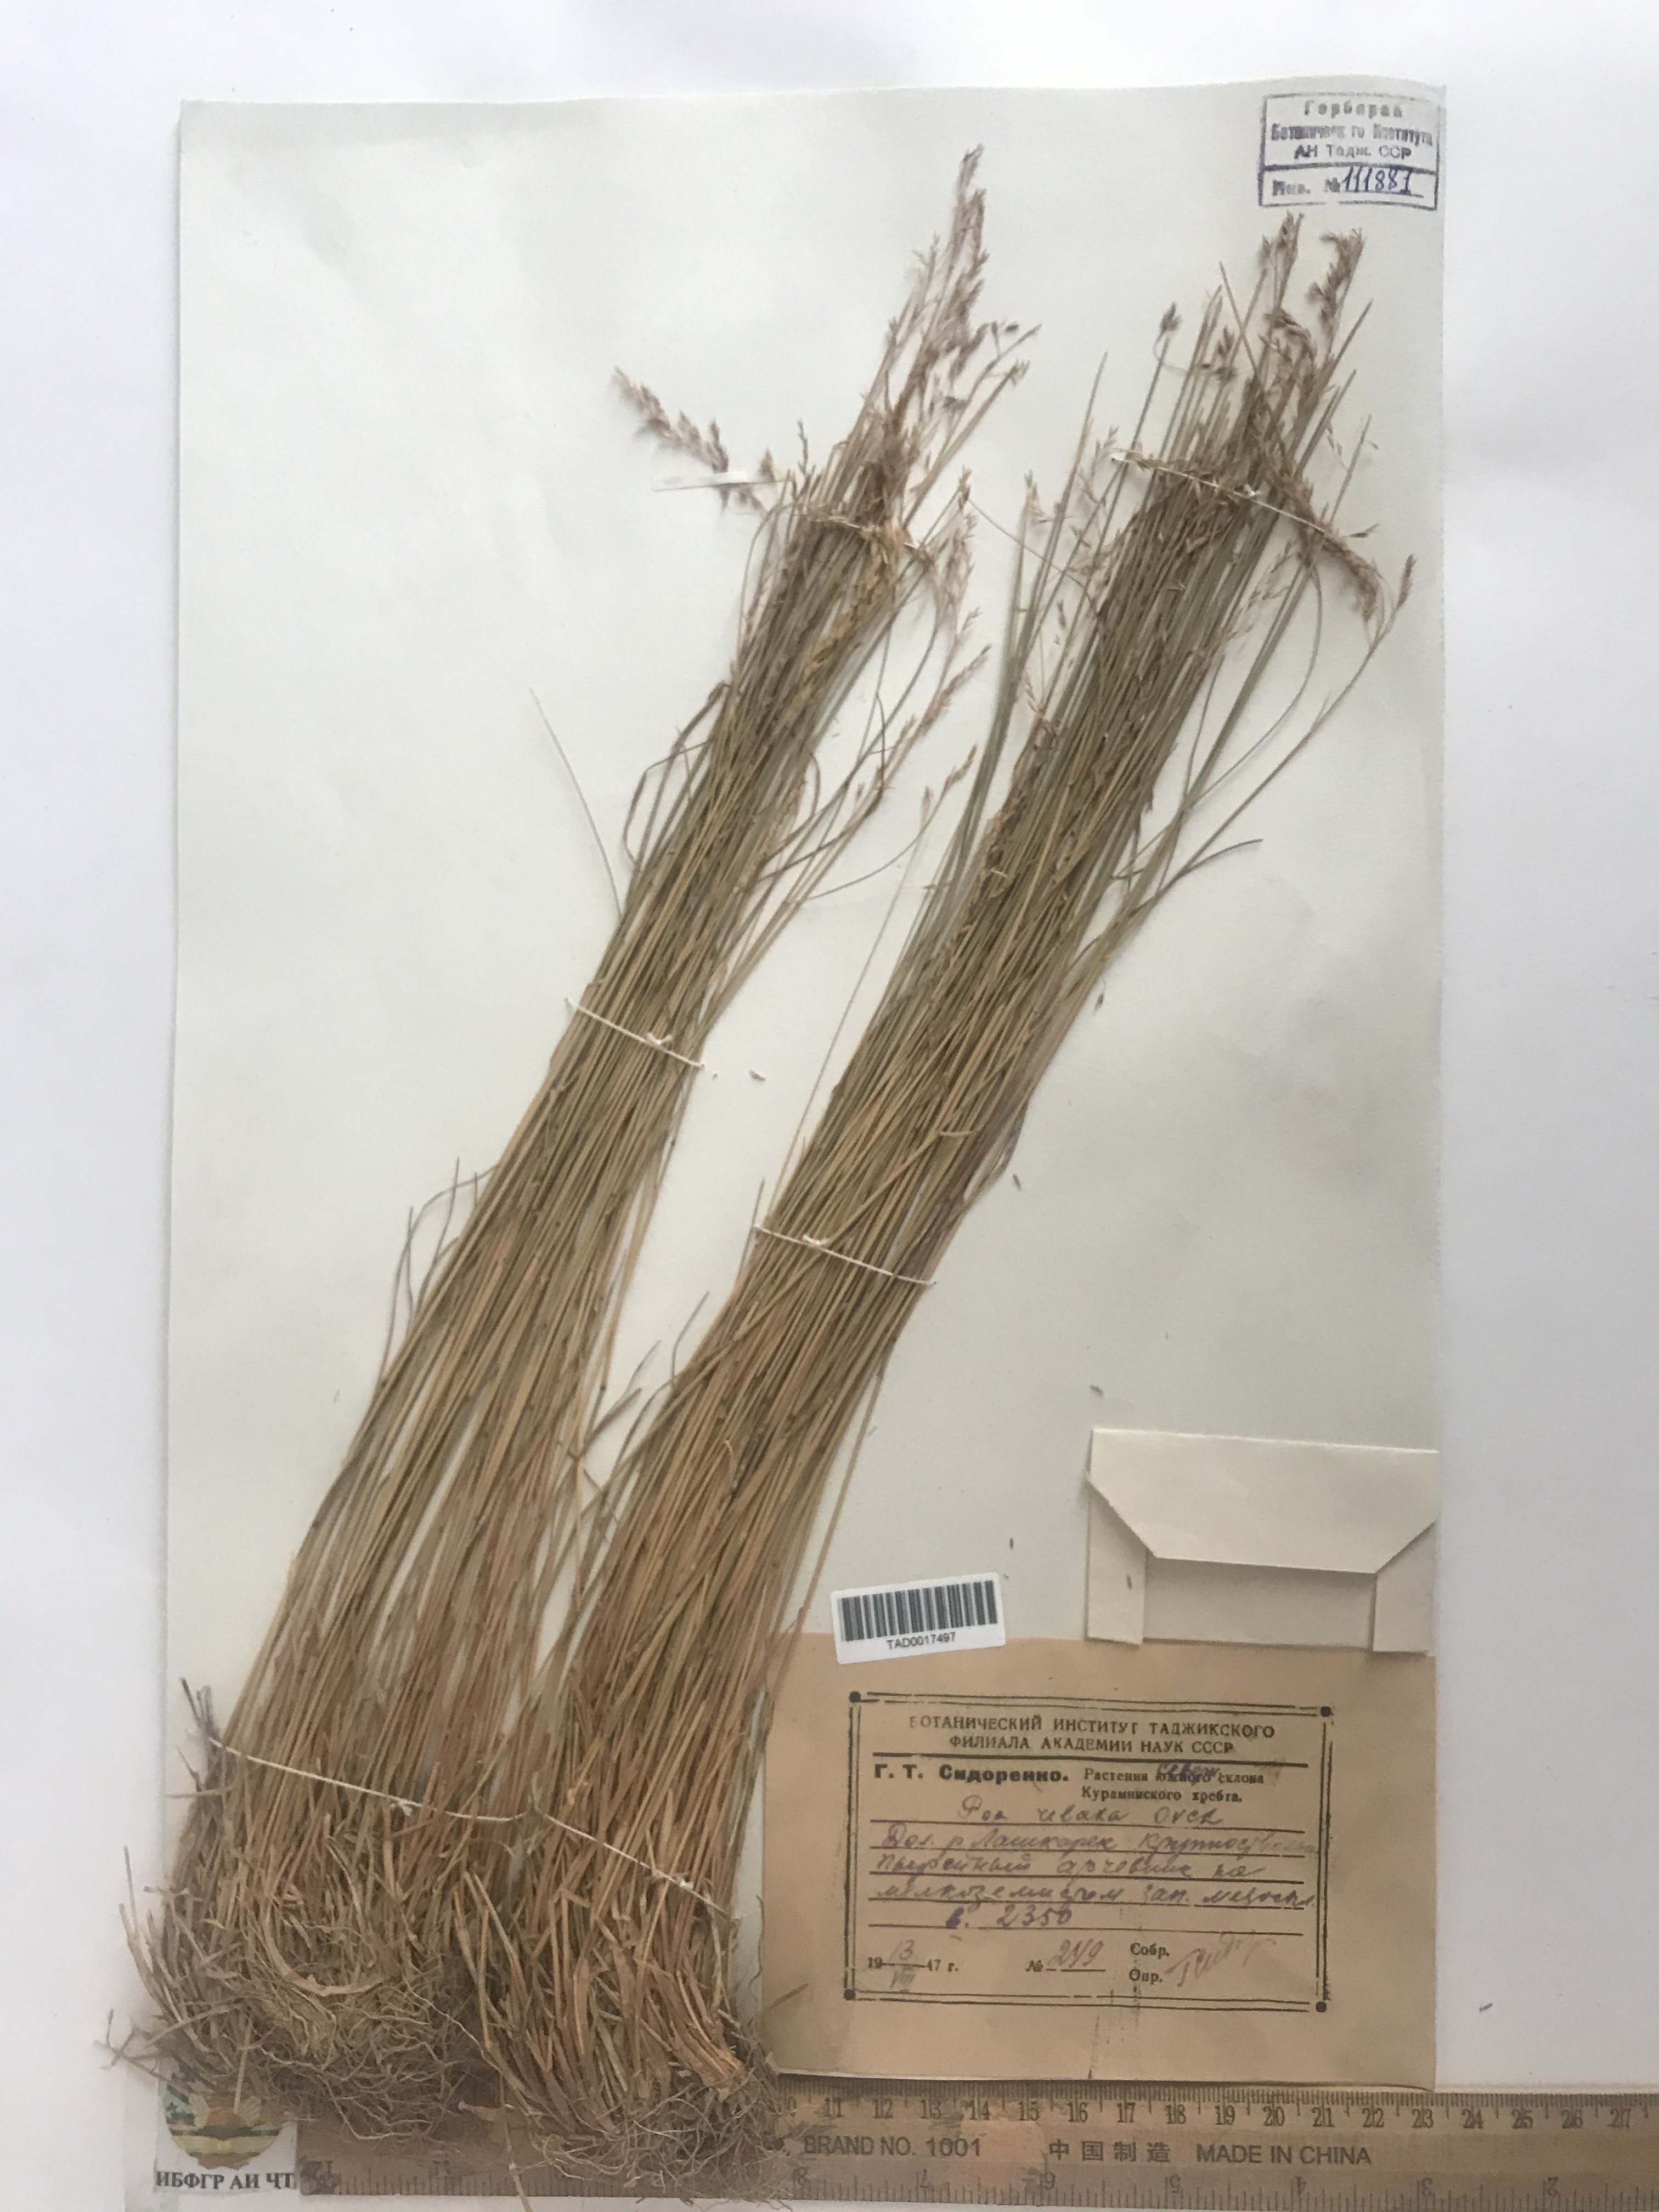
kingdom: Plantae
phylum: Tracheophyta
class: Liliopsida
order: Poales
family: Poaceae
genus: Poa
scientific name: Poa versicolor
